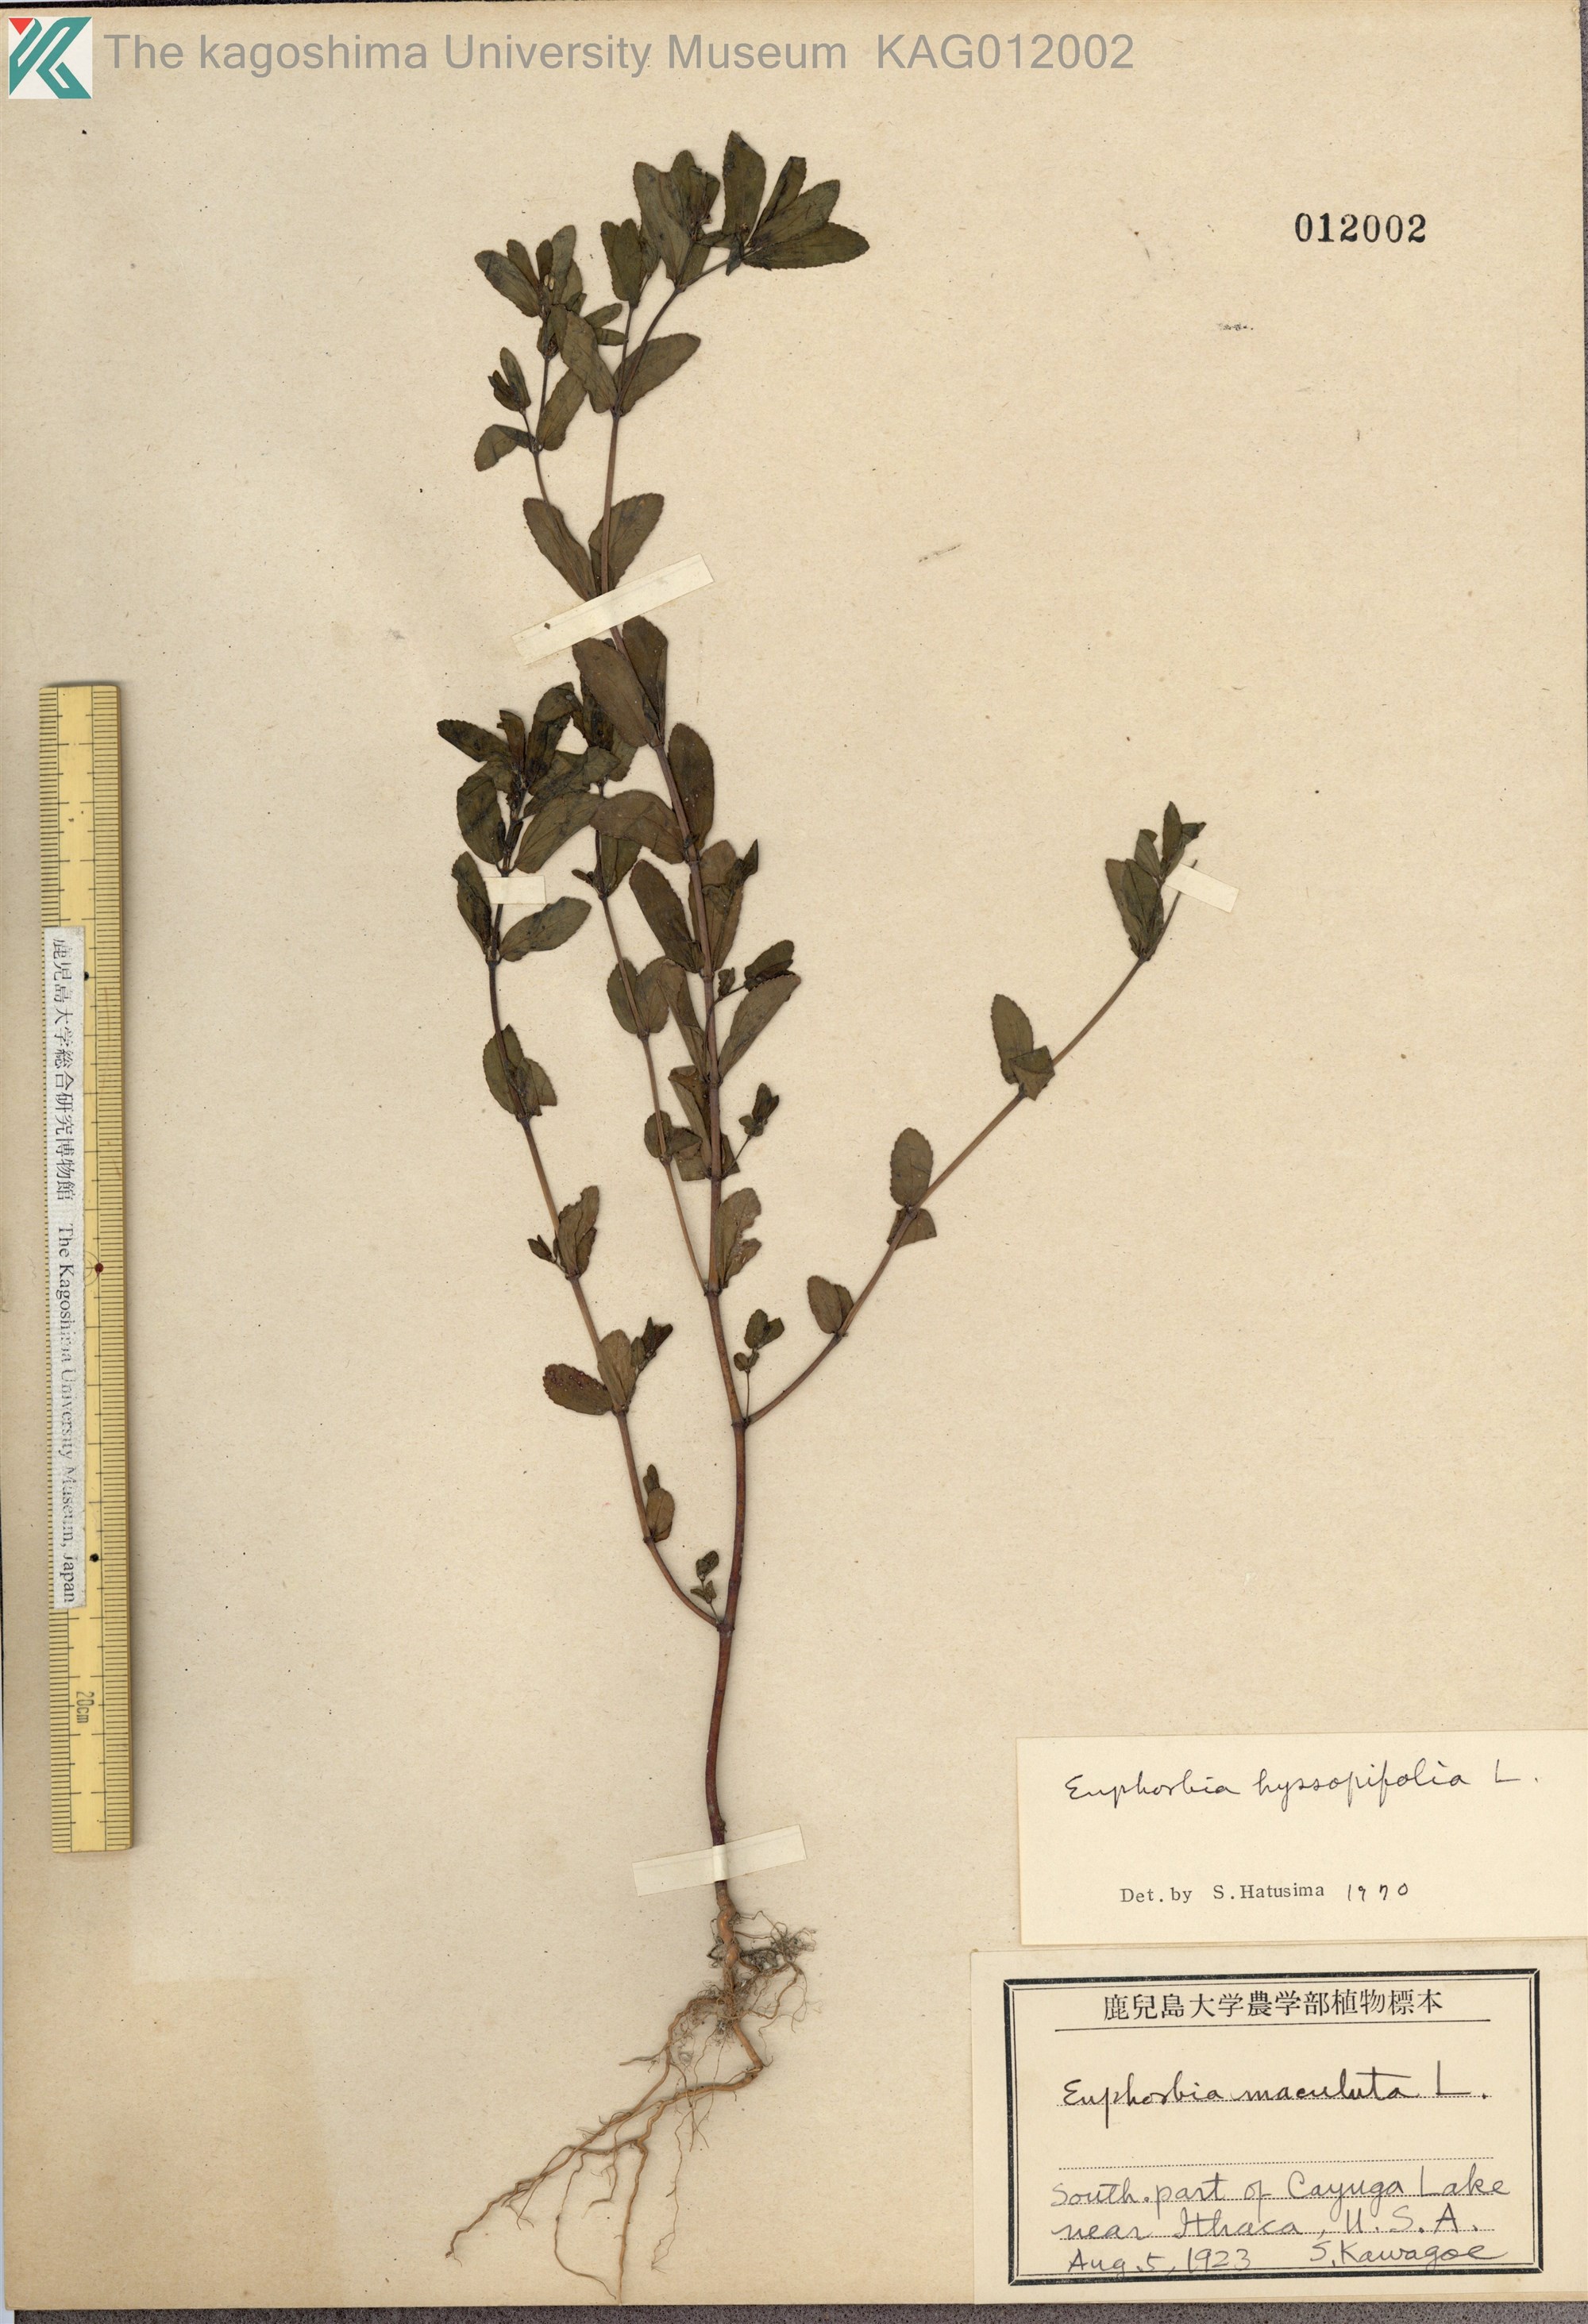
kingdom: Plantae
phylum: Tracheophyta
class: Magnoliopsida
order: Malpighiales
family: Euphorbiaceae
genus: Euphorbia
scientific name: Euphorbia hyssopifolia
